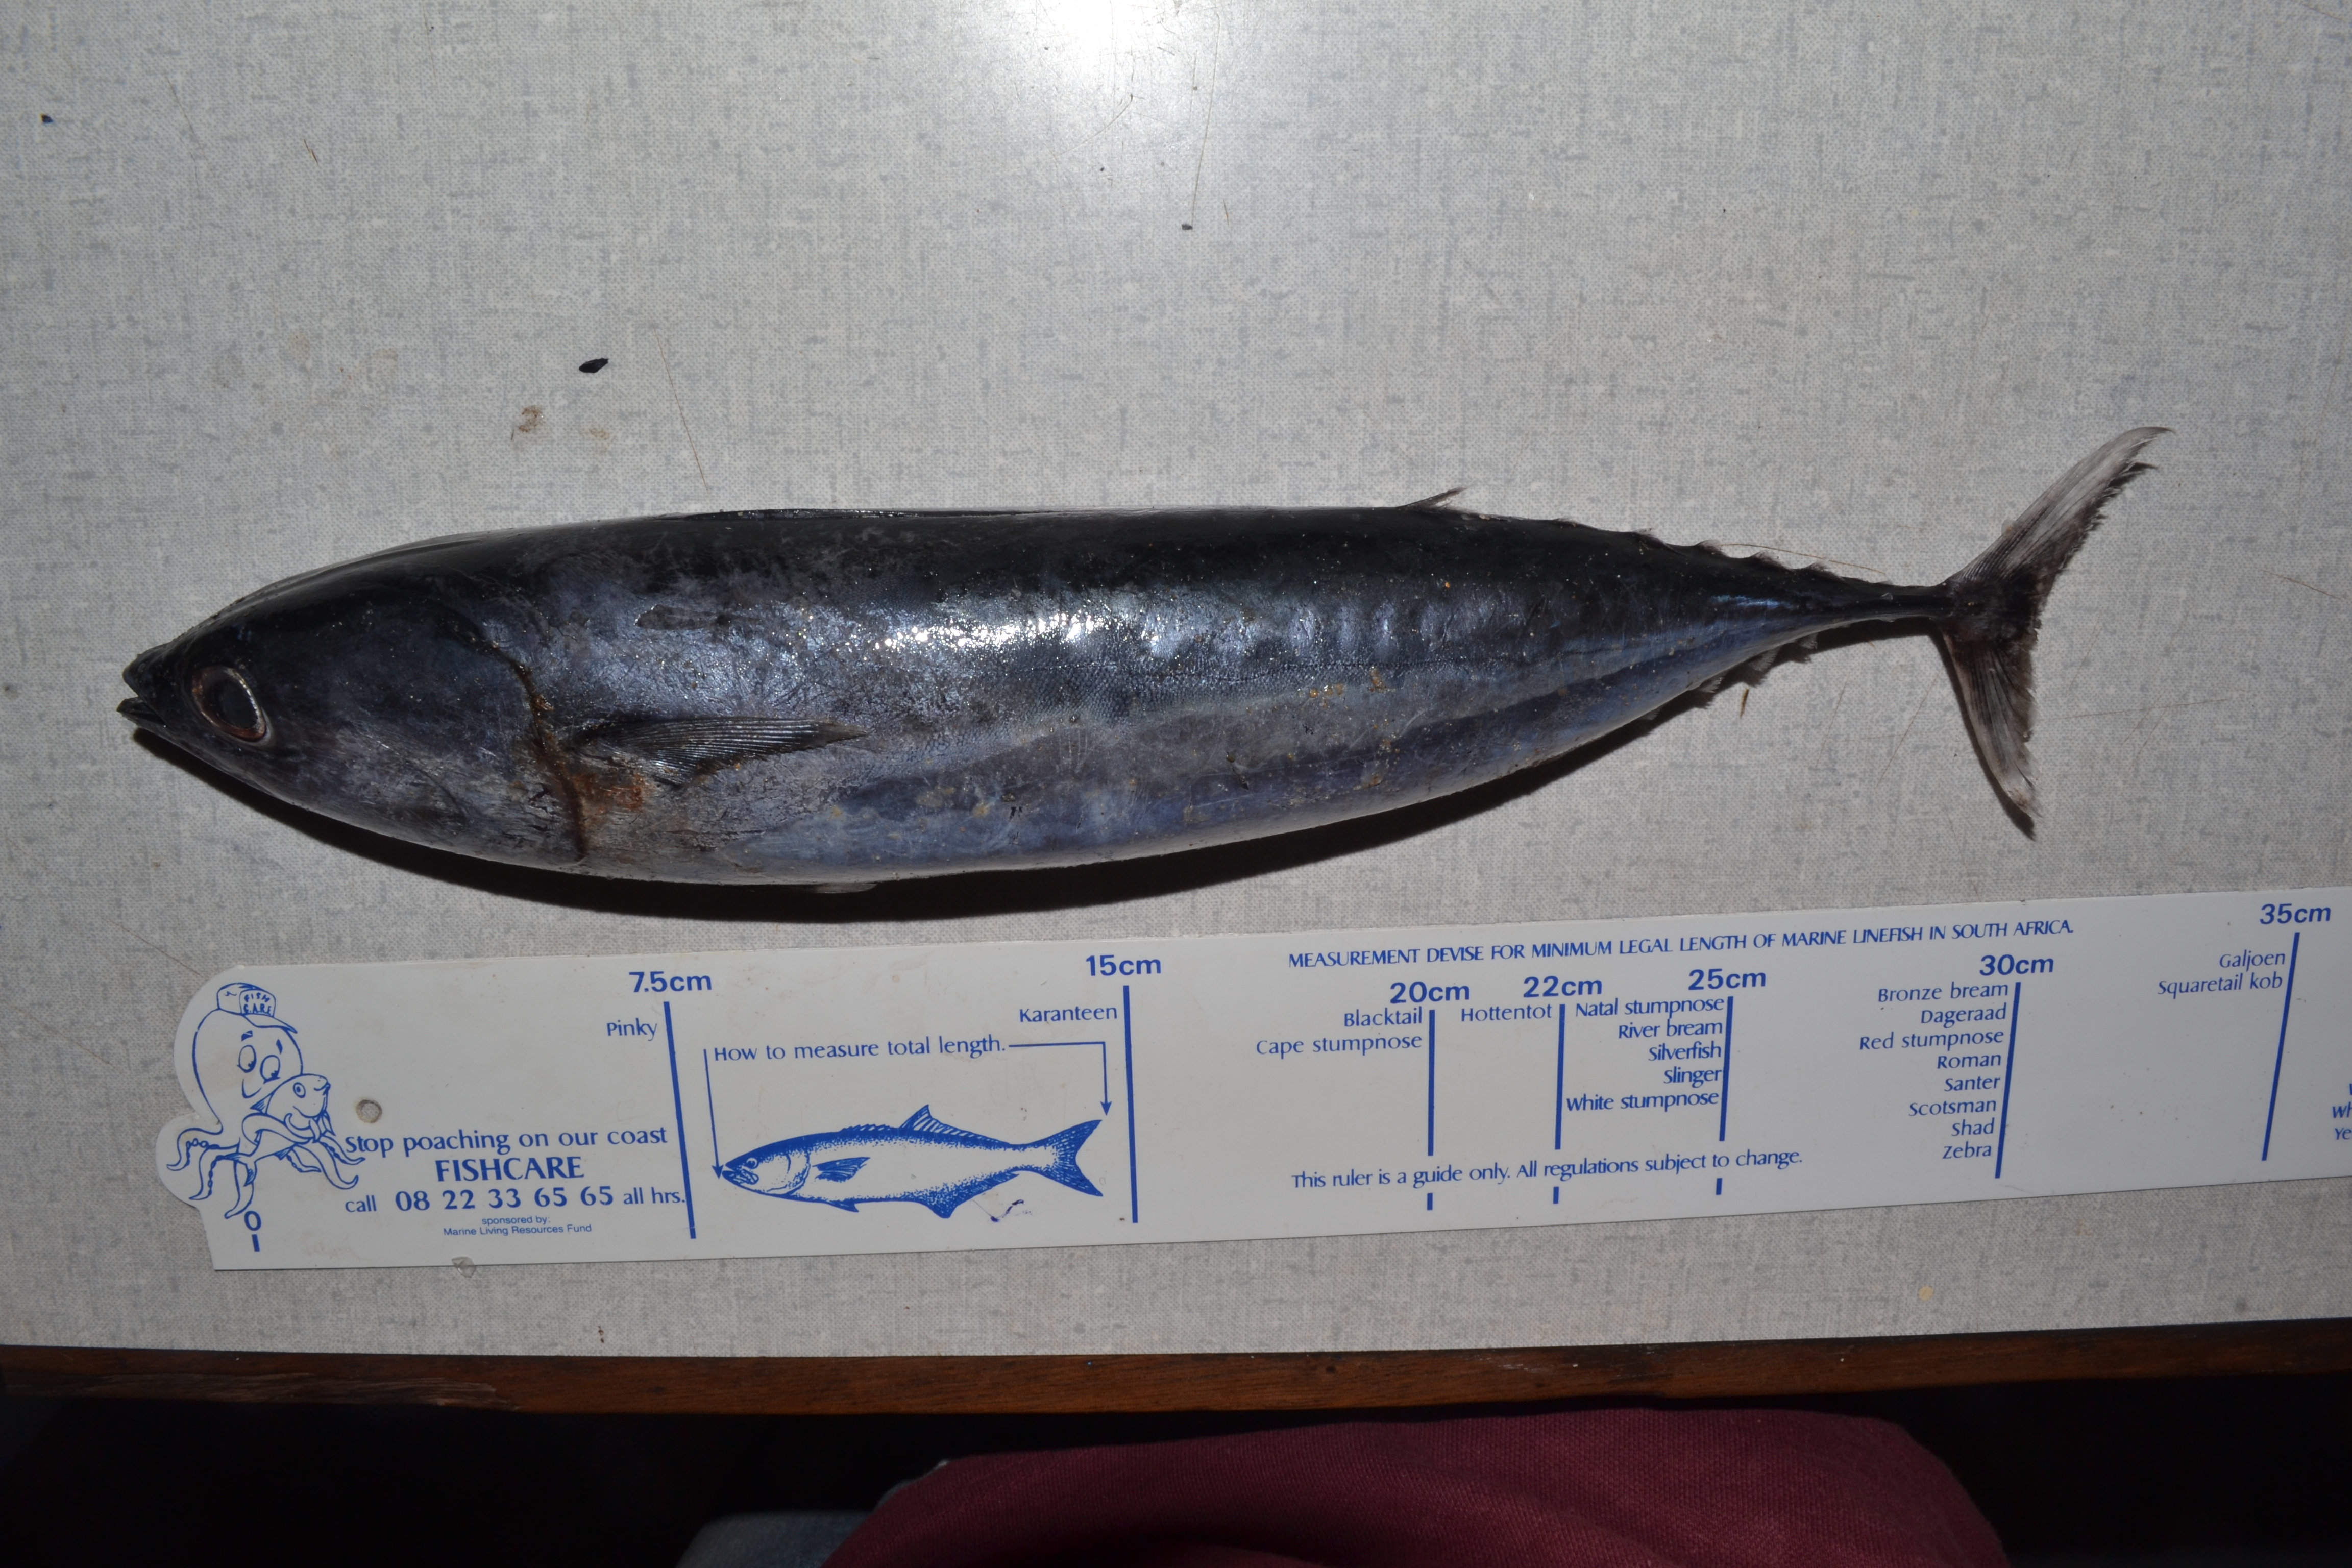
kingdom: Animalia
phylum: Chordata
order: Perciformes
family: Scombridae
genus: Auxis
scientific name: Auxis rochei
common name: Bullet tuna
